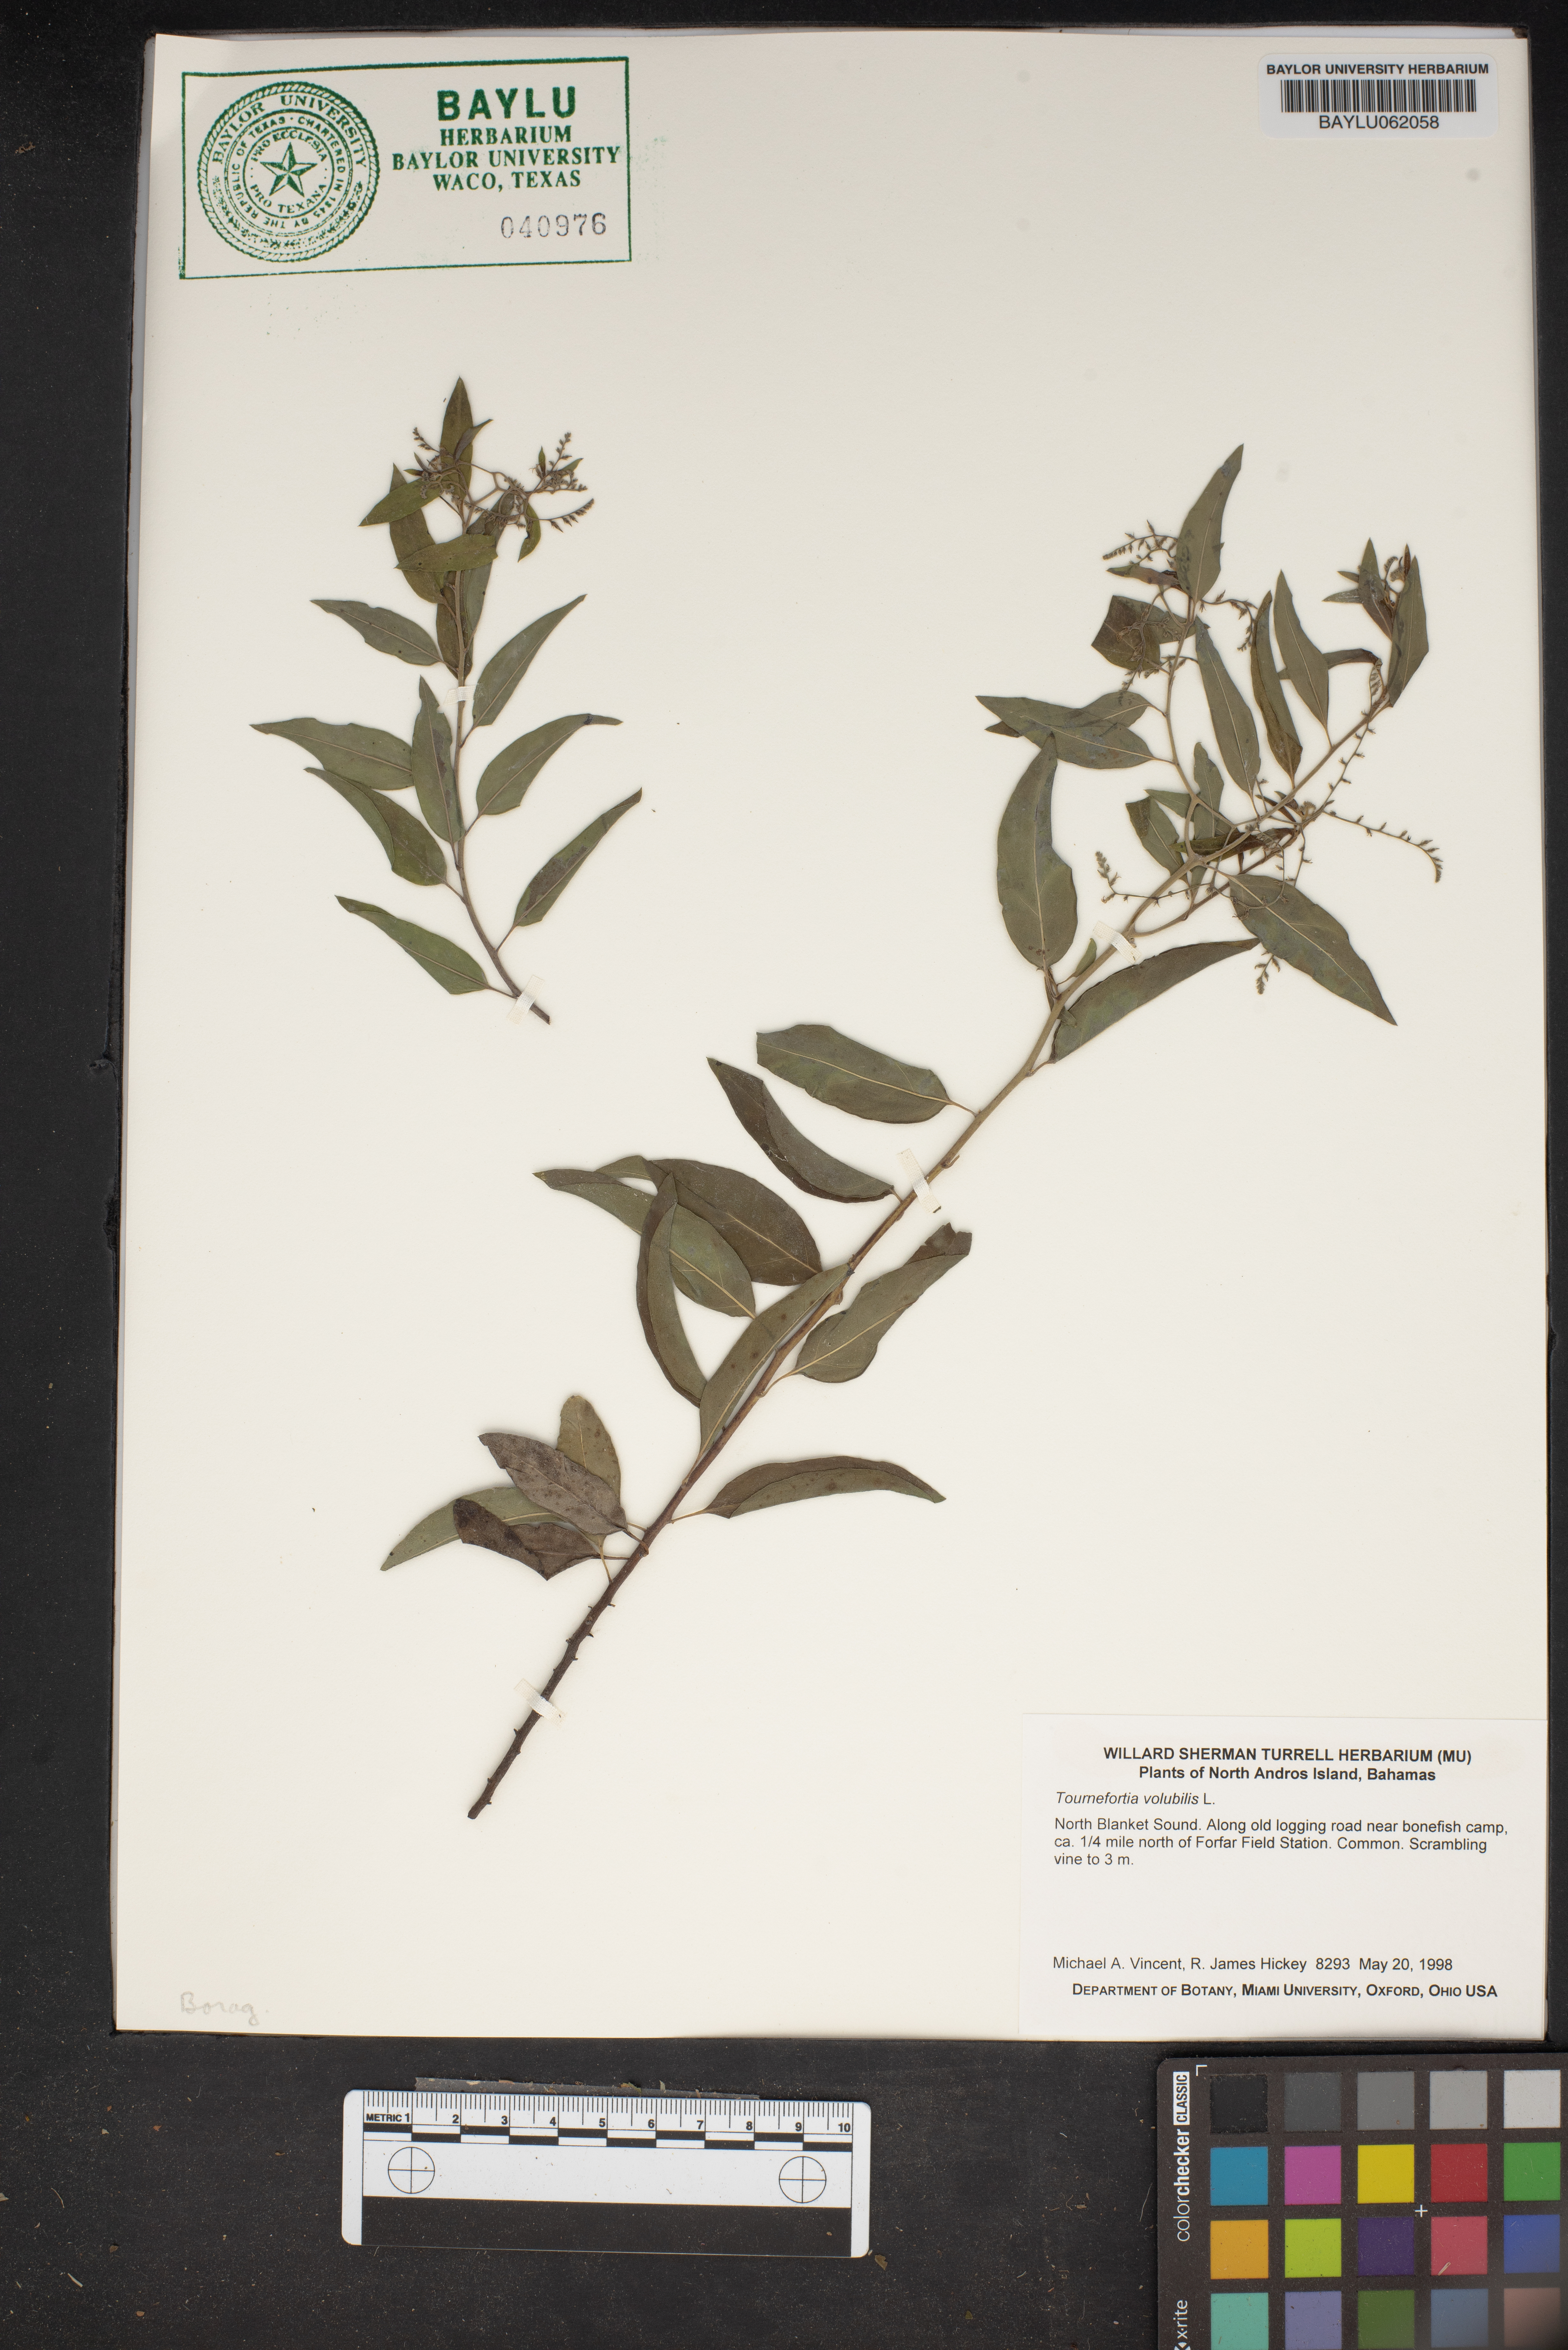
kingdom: Plantae
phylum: Tracheophyta
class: Magnoliopsida
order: Boraginales
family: Heliotropiaceae
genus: Myriopus
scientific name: Myriopus volubilis
